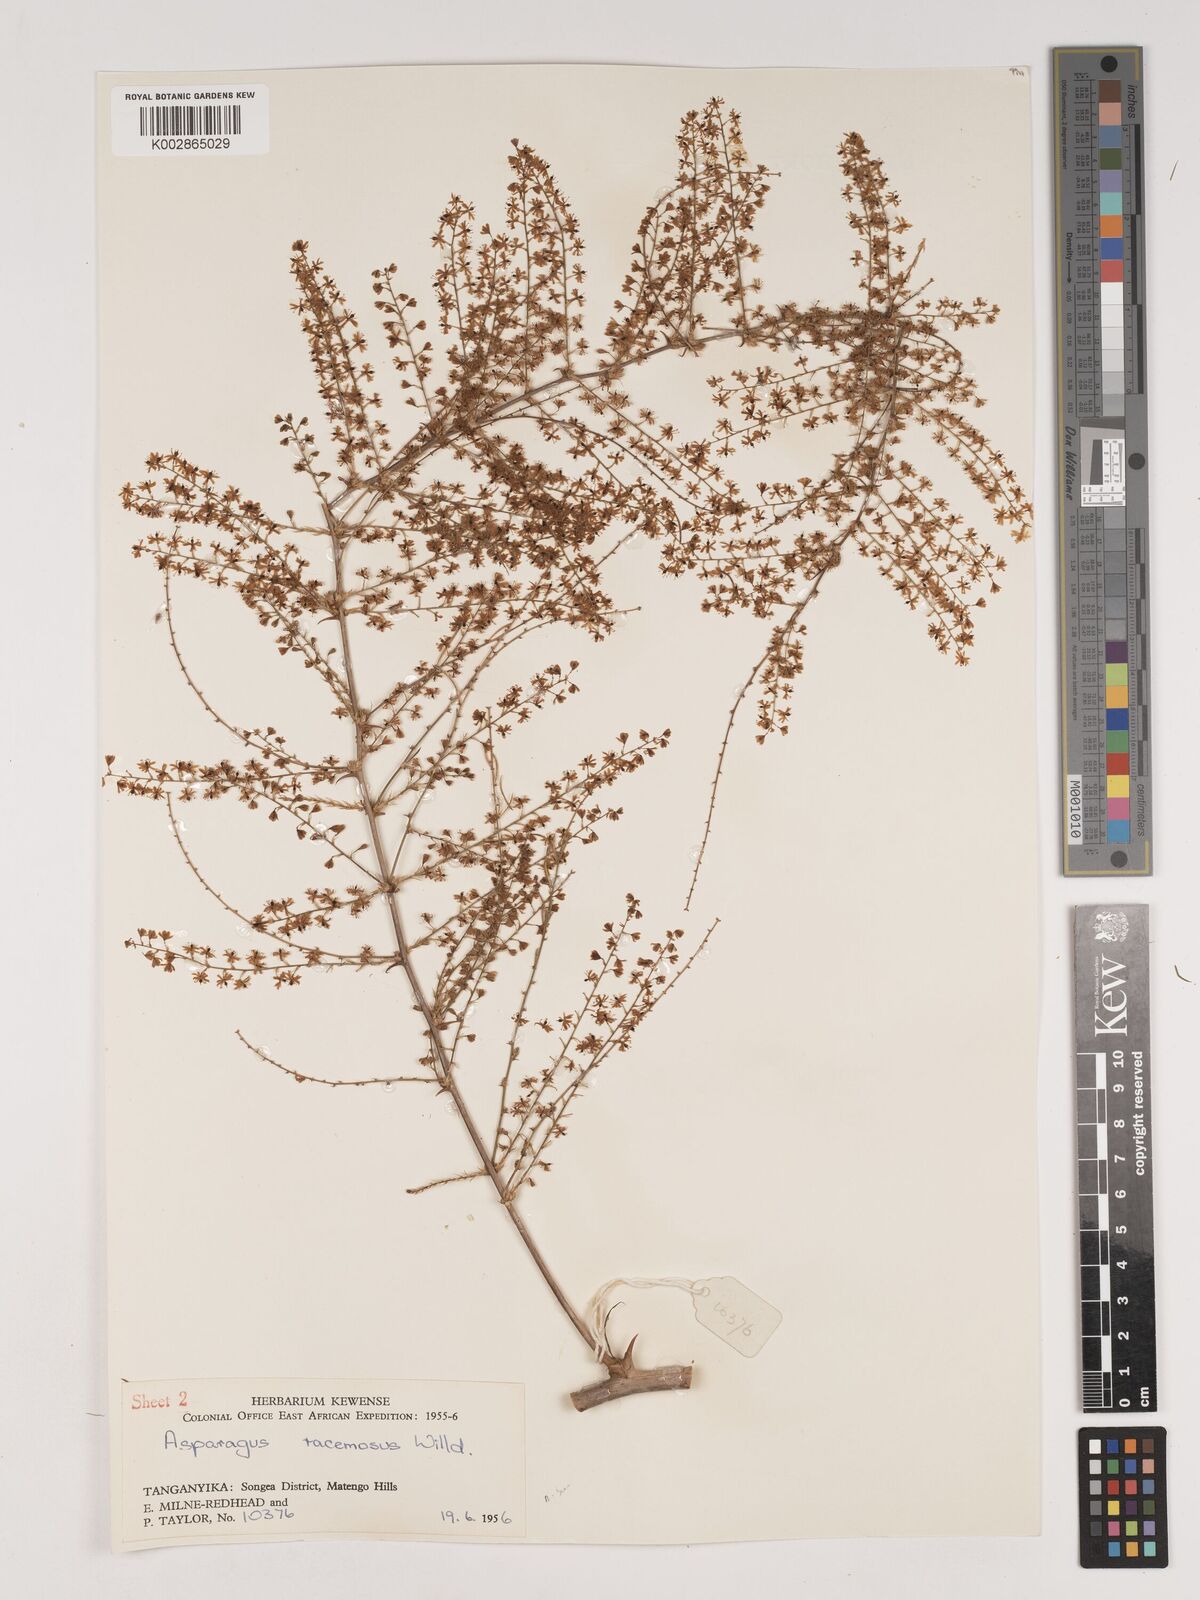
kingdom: Plantae
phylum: Tracheophyta
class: Liliopsida
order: Asparagales
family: Asparagaceae
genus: Asparagus
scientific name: Asparagus buchananii
